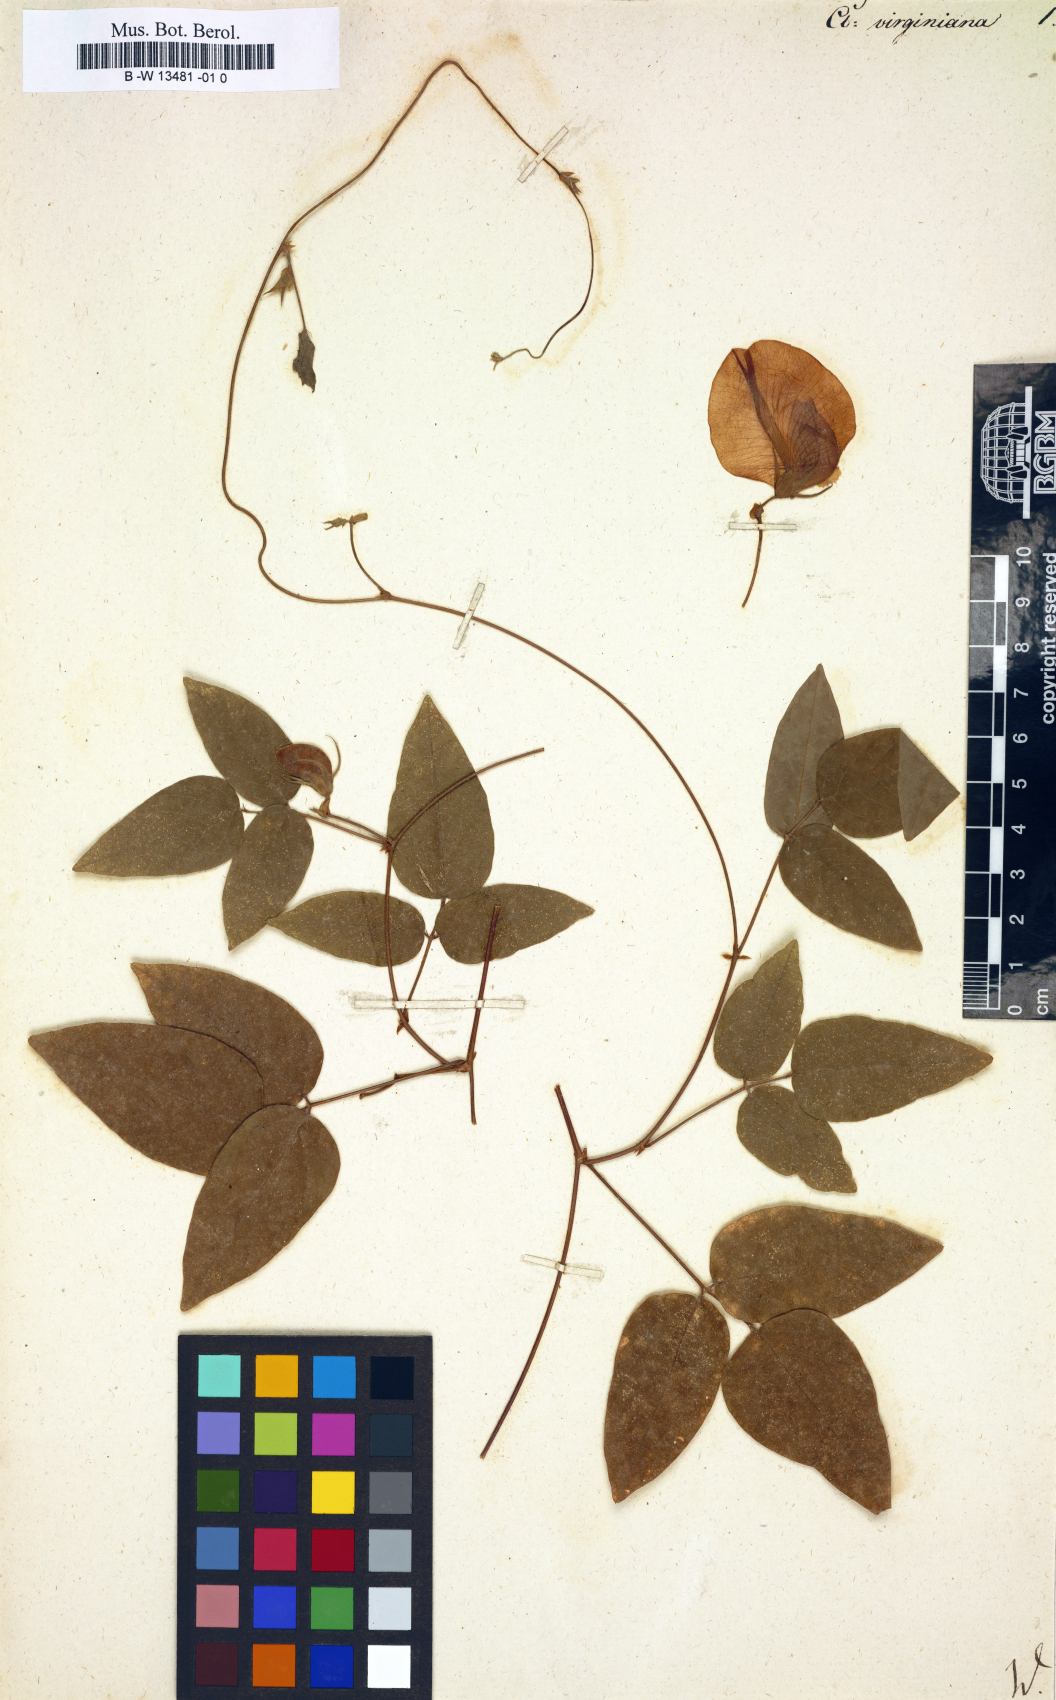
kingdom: Plantae
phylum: Tracheophyta
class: Magnoliopsida
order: Fabales
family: Fabaceae
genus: Centrosema
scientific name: Centrosema virginianum
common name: Butterfly-pea
